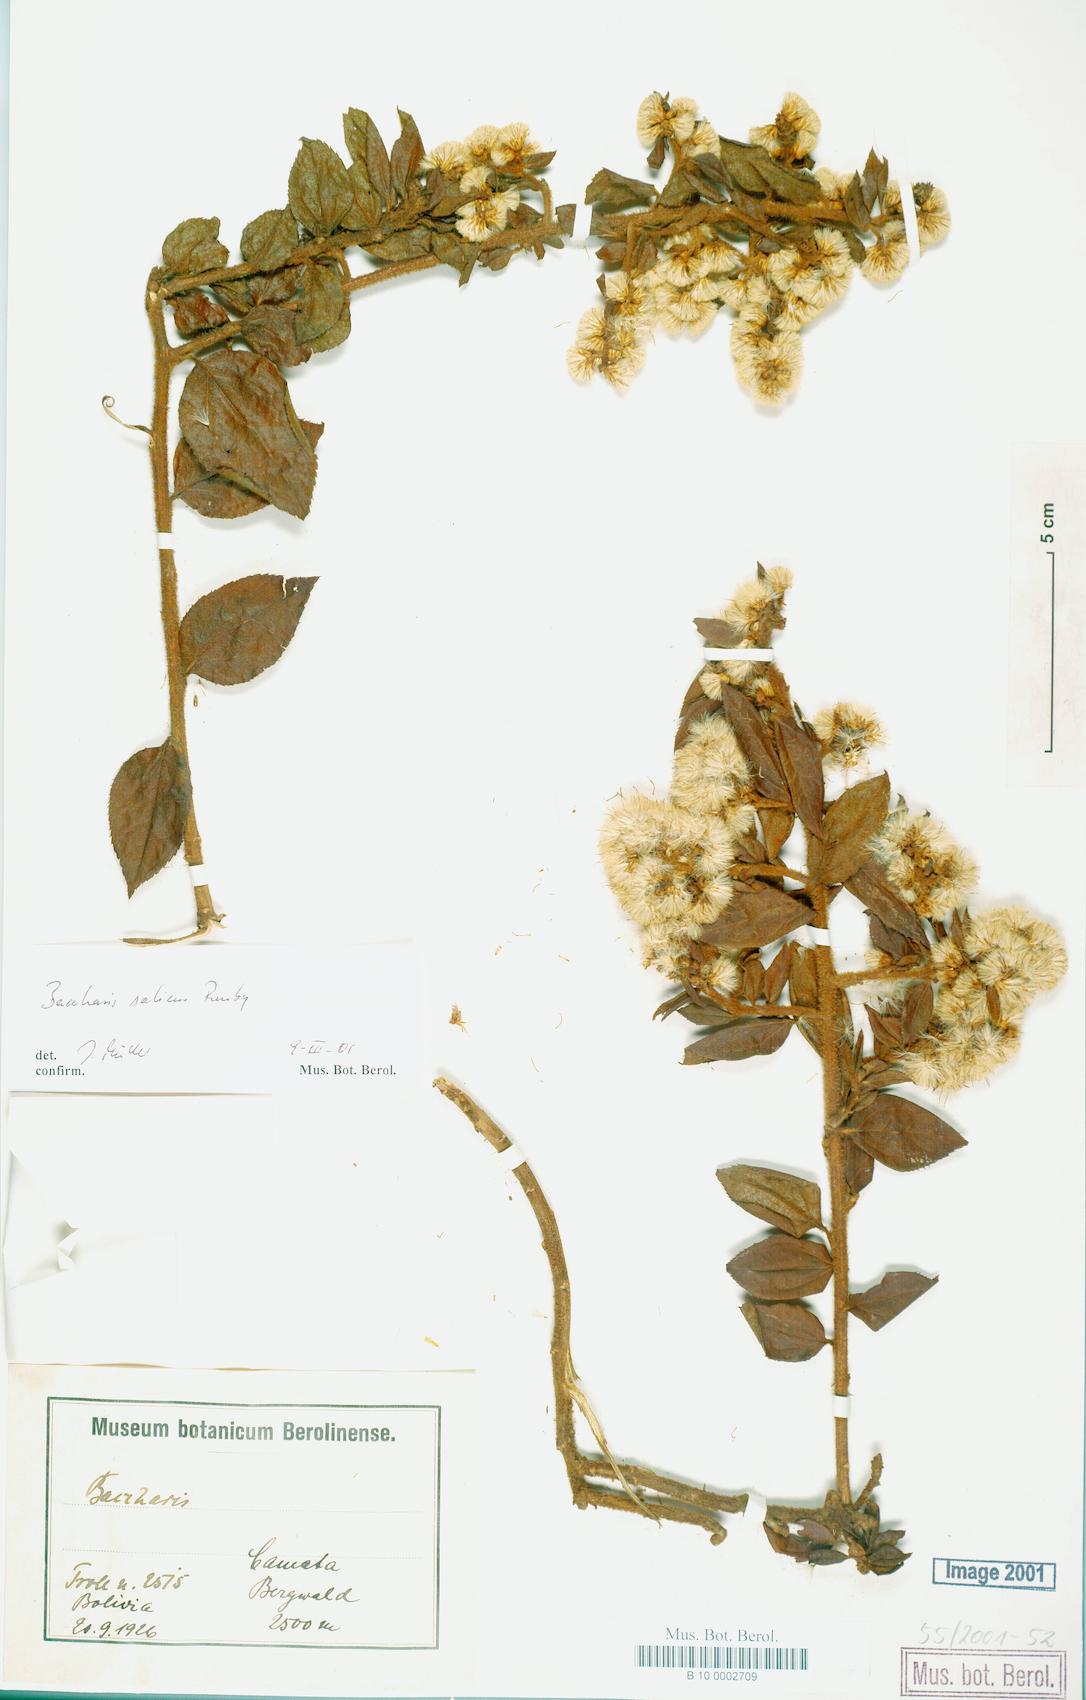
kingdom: Plantae
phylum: Tracheophyta
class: Magnoliopsida
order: Asterales
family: Asteraceae
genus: Baccharis
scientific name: Baccharis saliens
